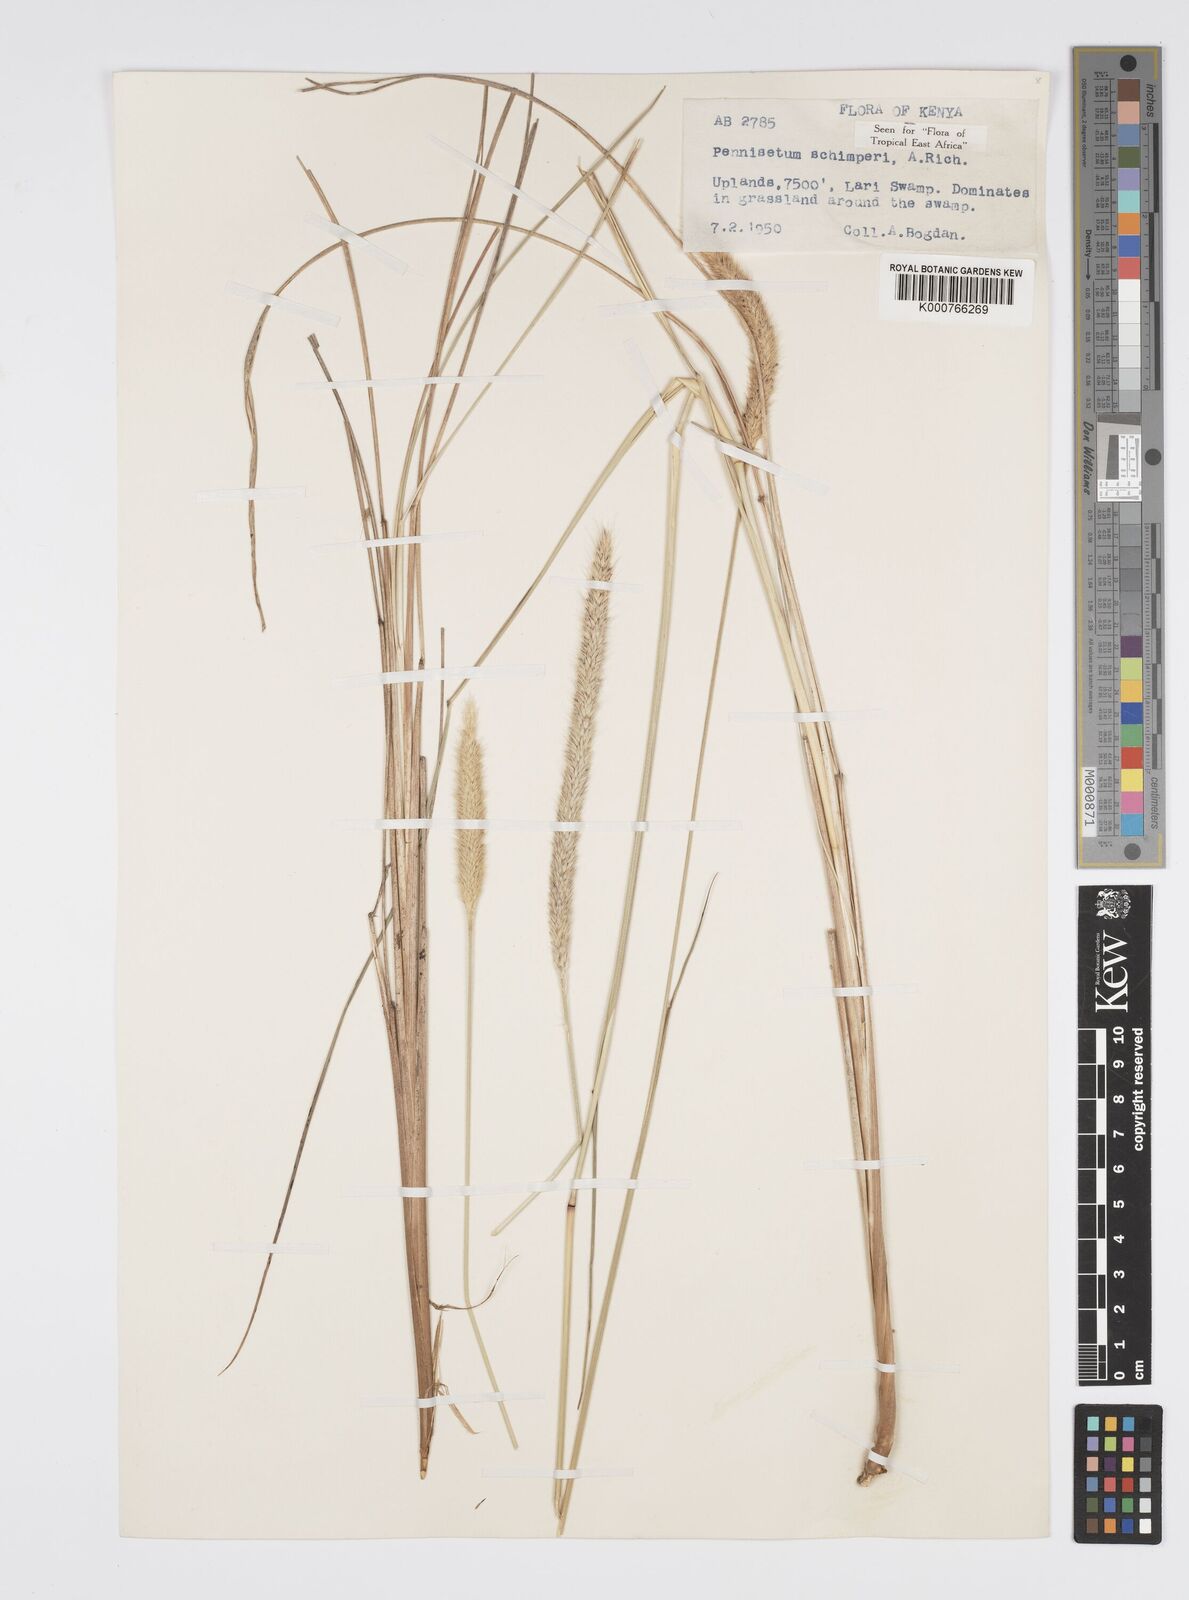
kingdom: Plantae
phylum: Tracheophyta
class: Liliopsida
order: Poales
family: Poaceae
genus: Cenchrus
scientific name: Cenchrus sphacelatus
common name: Bulgras
